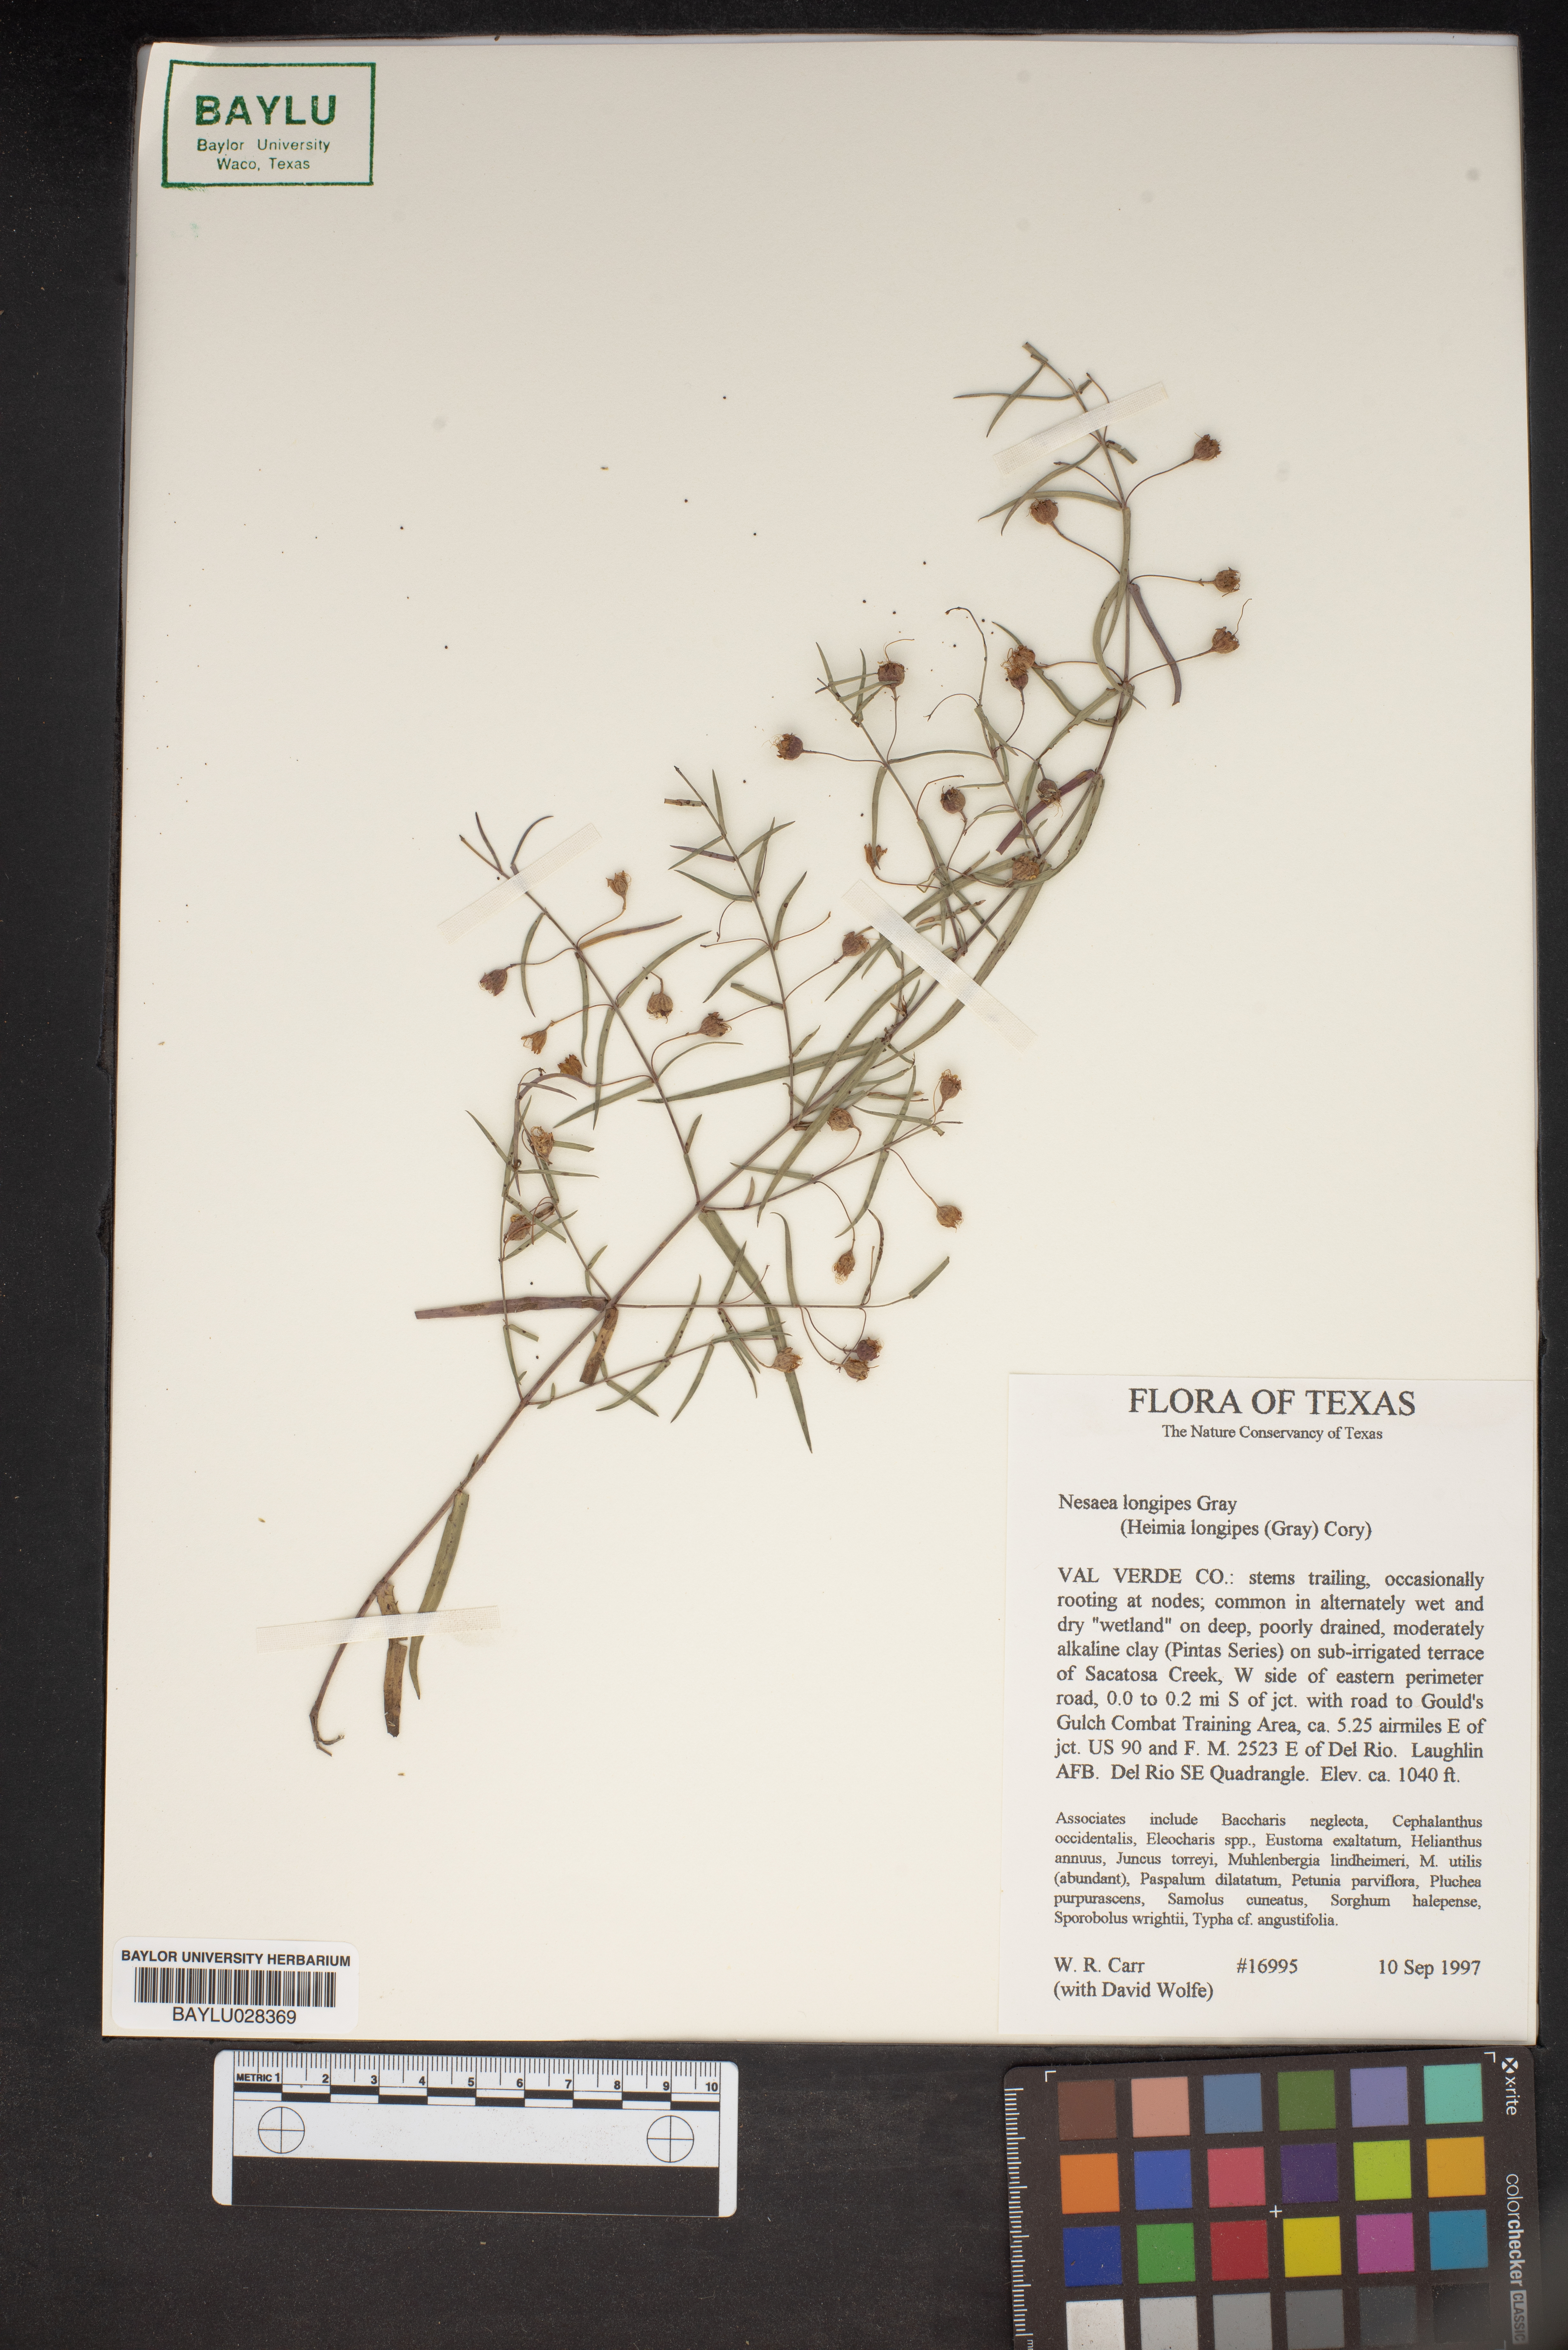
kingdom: Plantae
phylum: Tracheophyta
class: Magnoliopsida
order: Myrtales
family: Lythraceae
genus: Ammannia
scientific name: Ammannia grayi
